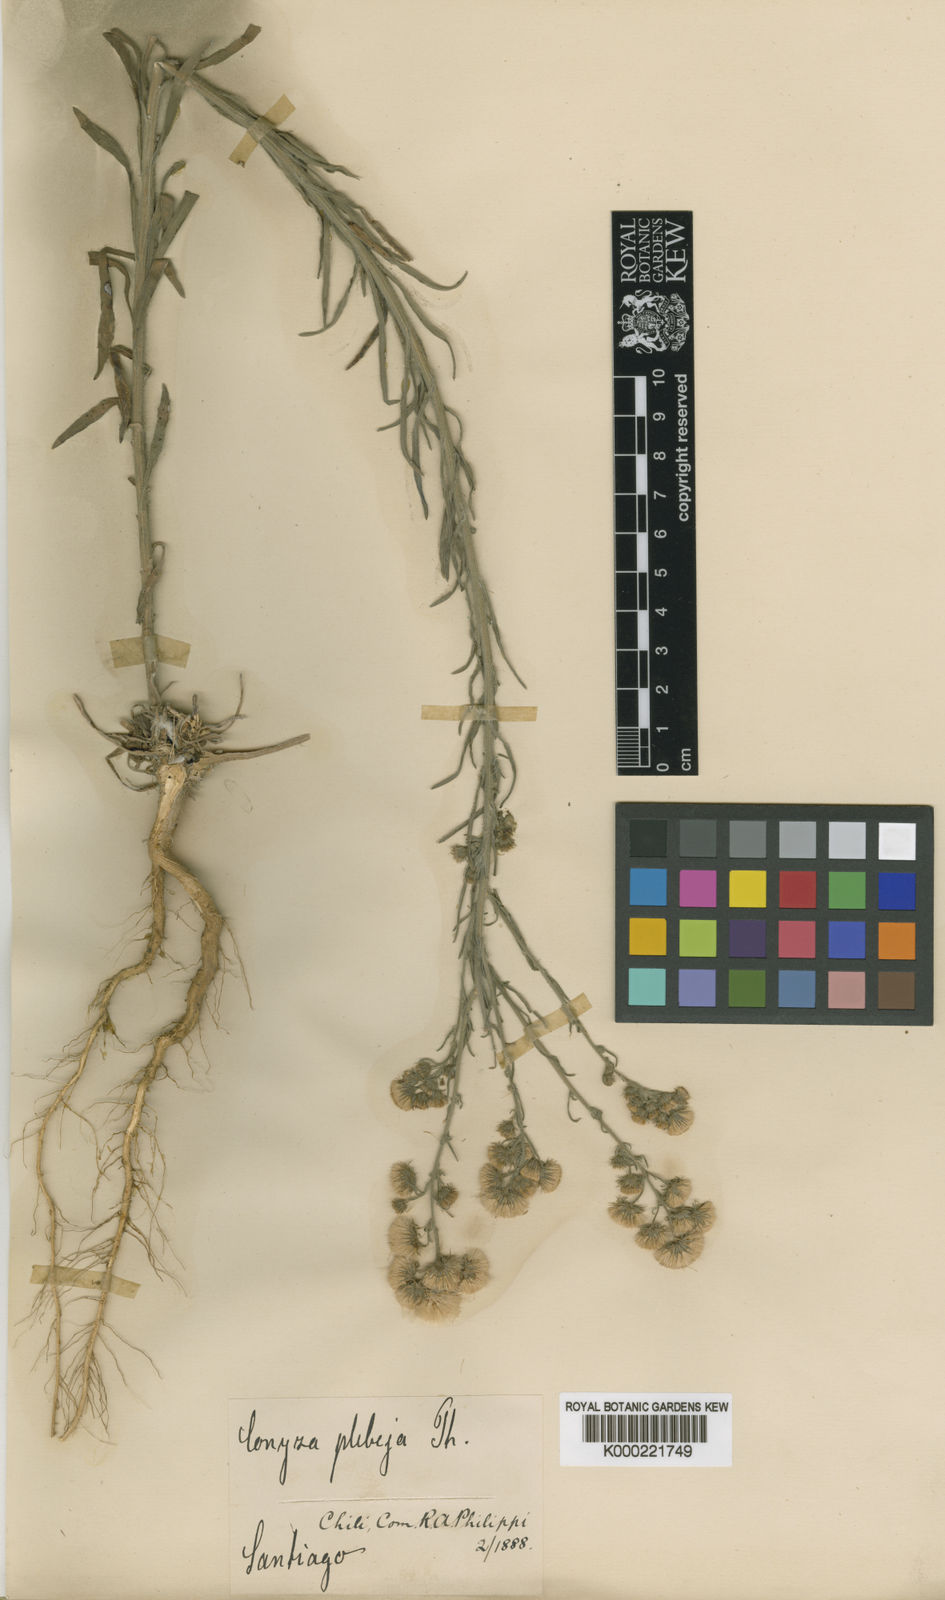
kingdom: Plantae
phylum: Tracheophyta
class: Magnoliopsida
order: Asterales
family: Asteraceae
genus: Erigeron
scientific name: Erigeron bonariensis
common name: Argentine fleabane
